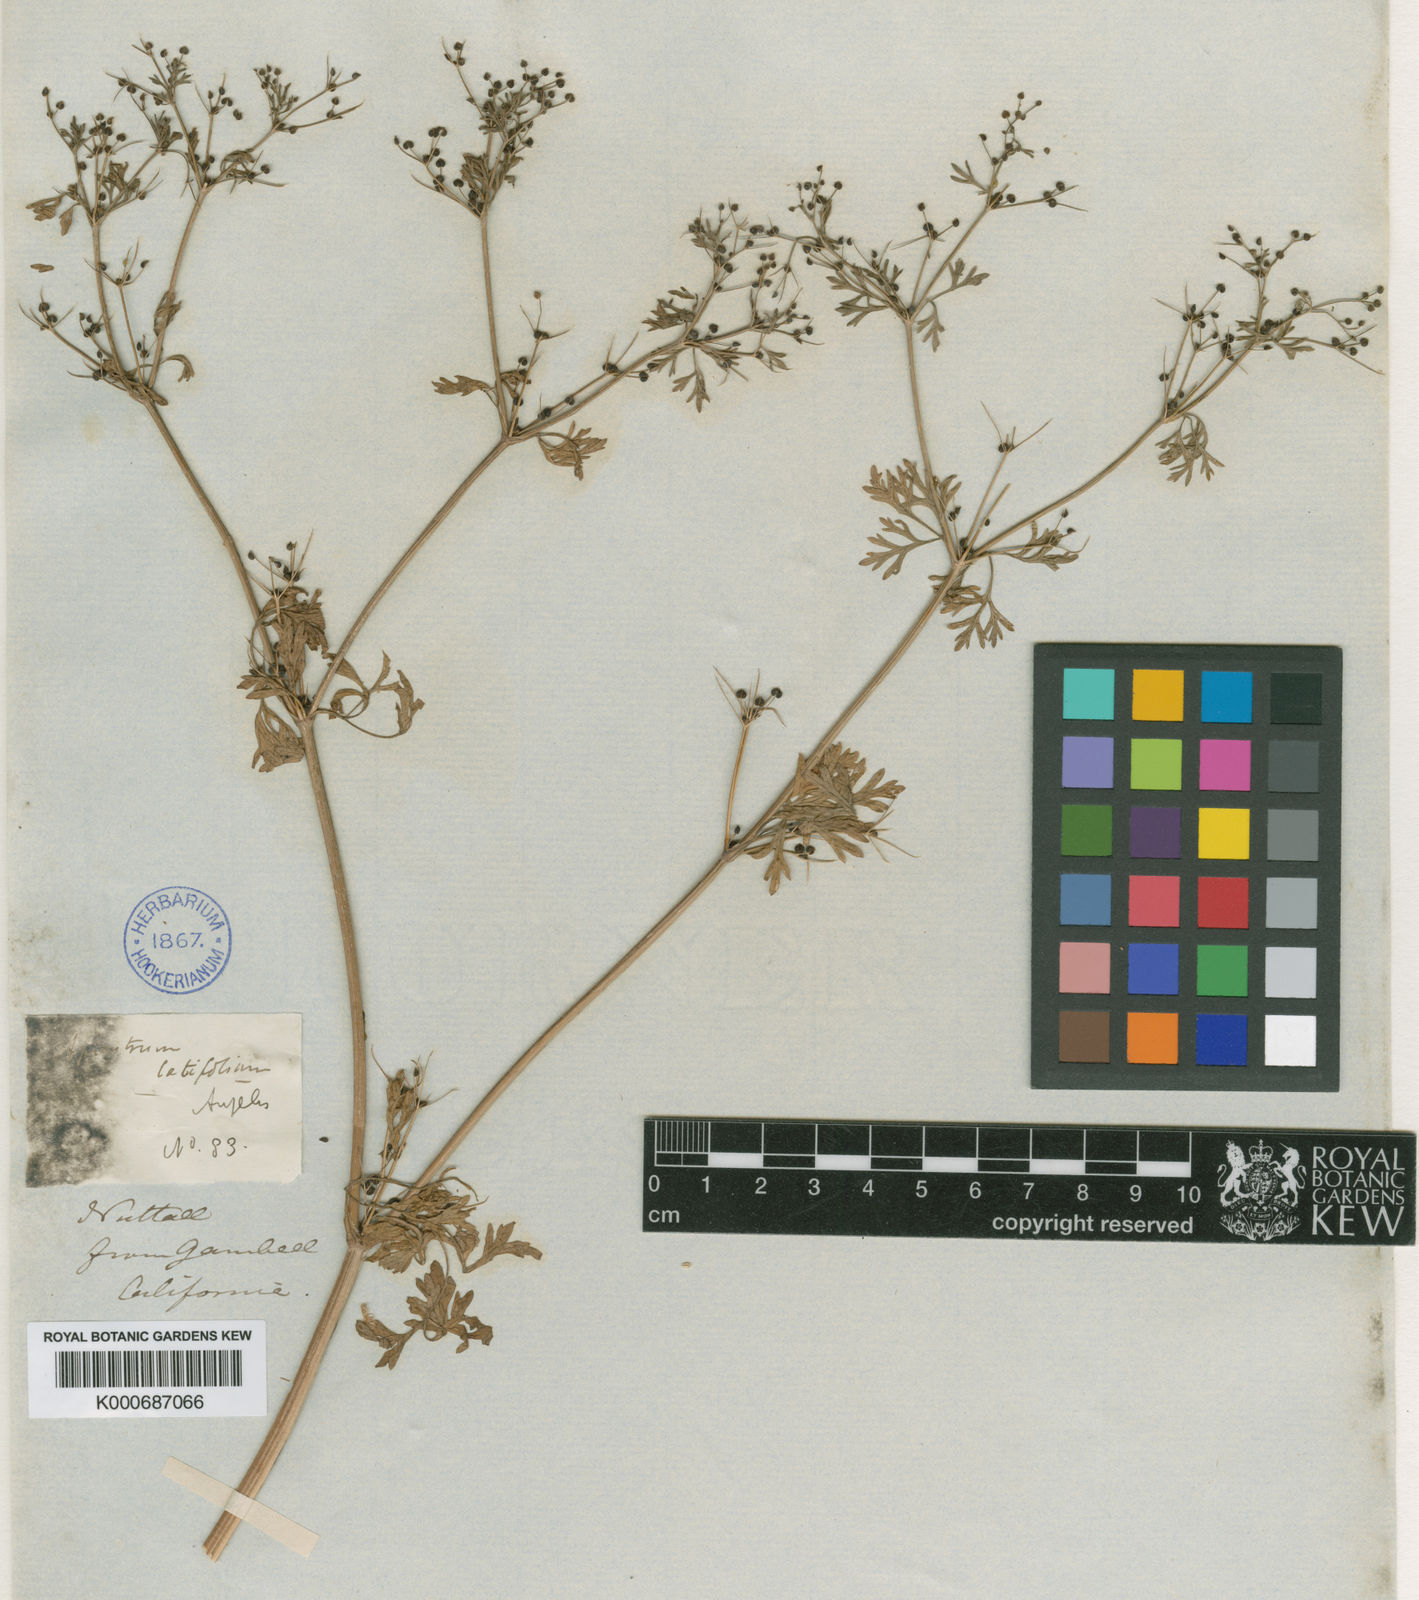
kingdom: Plantae
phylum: Tracheophyta
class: Magnoliopsida
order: Apiales
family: Apiaceae
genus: Ammoselinum
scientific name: Ammoselinum
